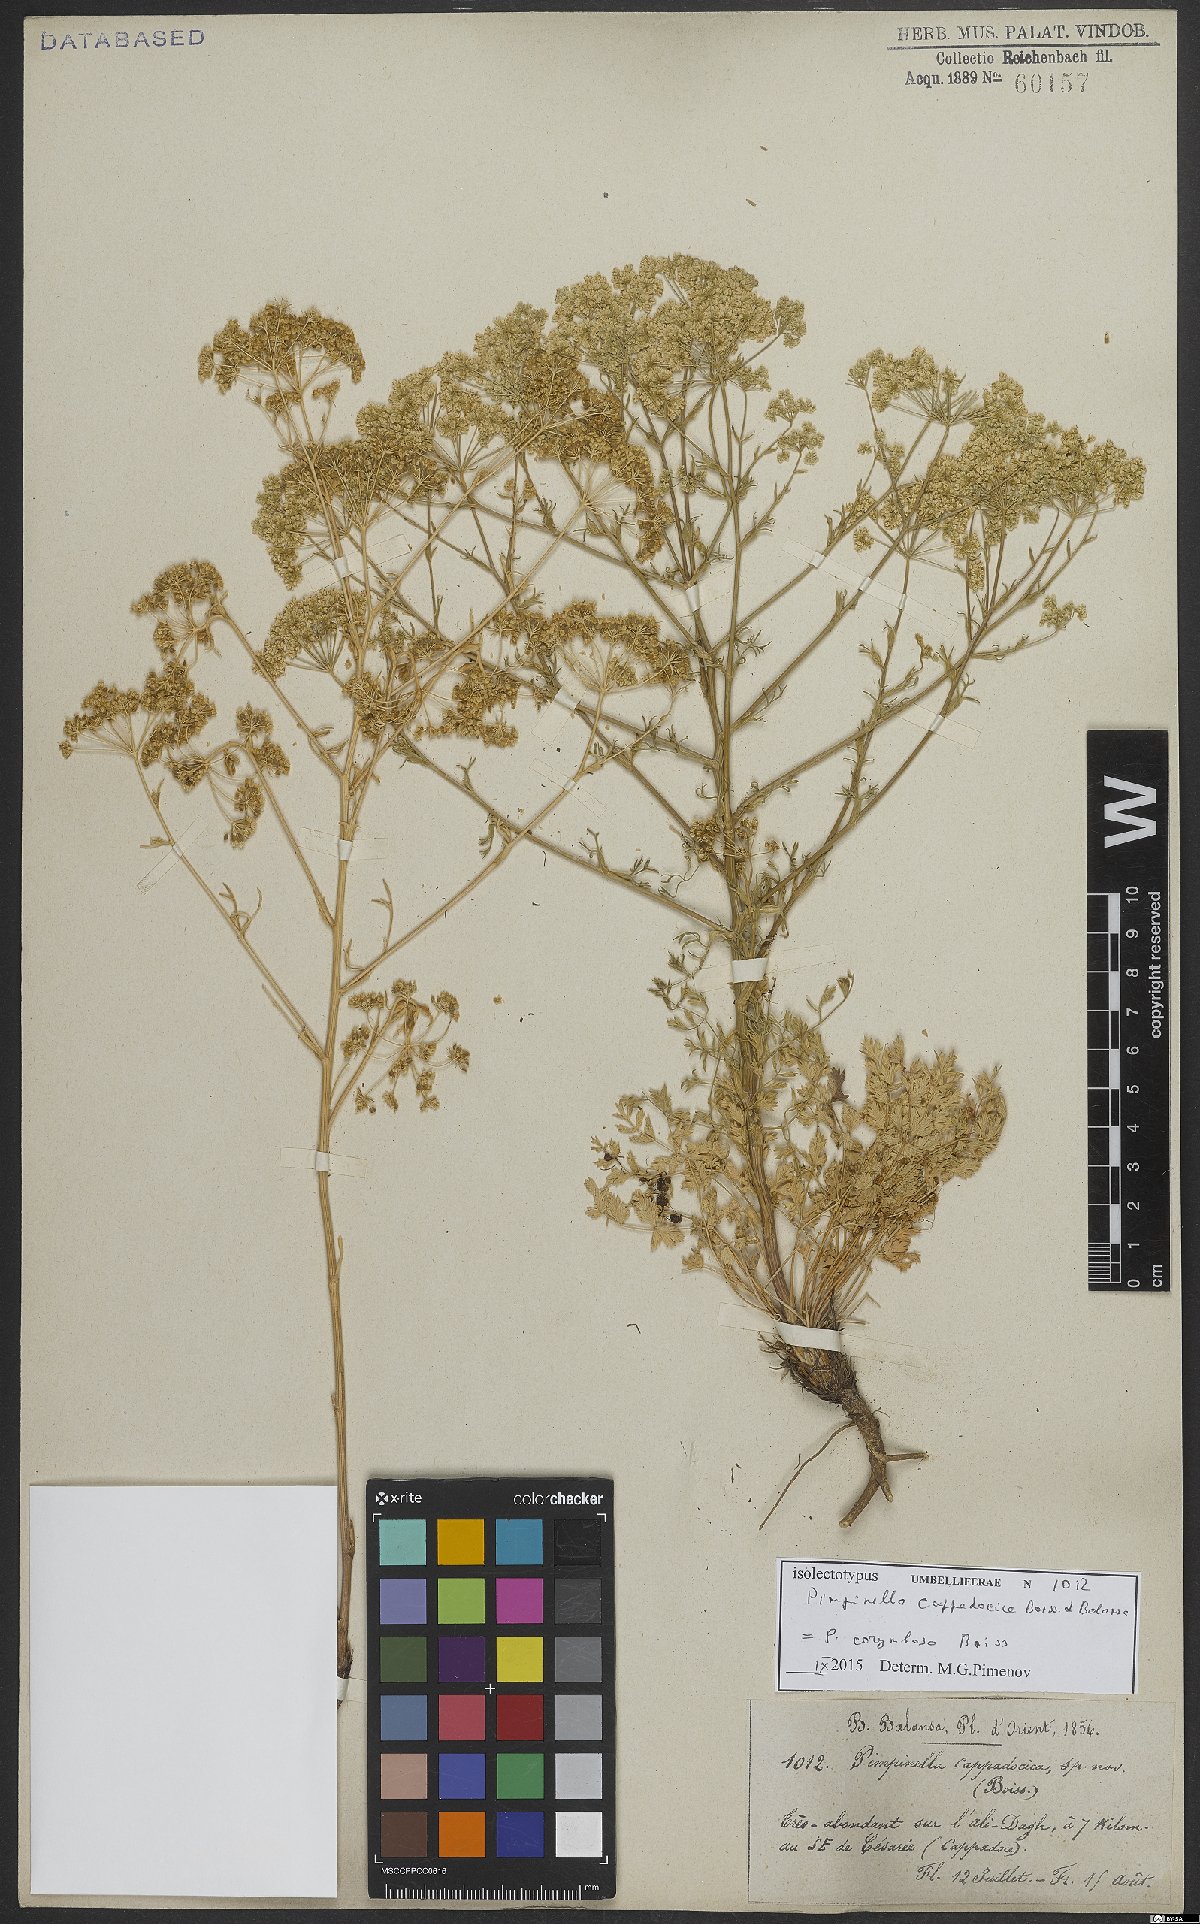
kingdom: Plantae
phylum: Tracheophyta
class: Magnoliopsida
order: Apiales
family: Apiaceae
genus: Pimpinella
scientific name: Pimpinella corymbosa
